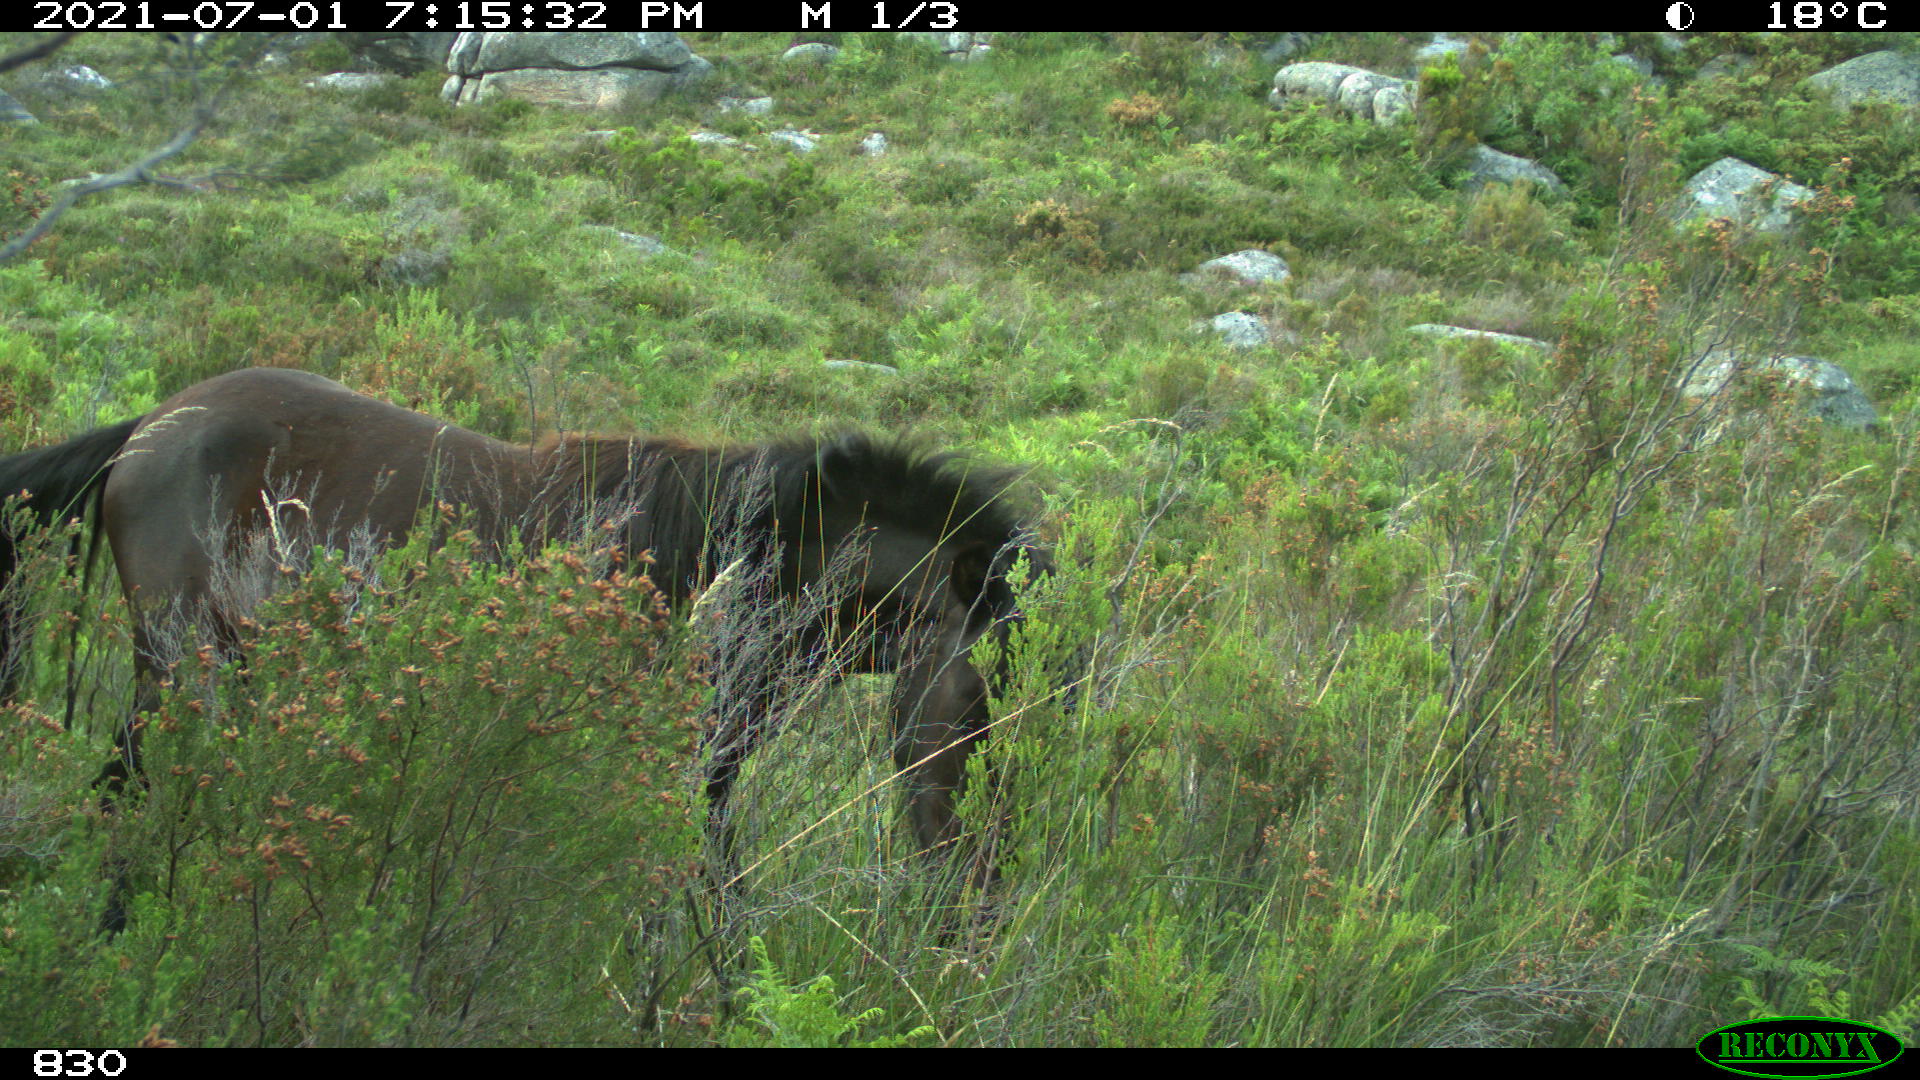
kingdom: Animalia
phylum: Chordata
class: Mammalia
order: Perissodactyla
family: Equidae
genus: Equus
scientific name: Equus caballus
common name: Horse
